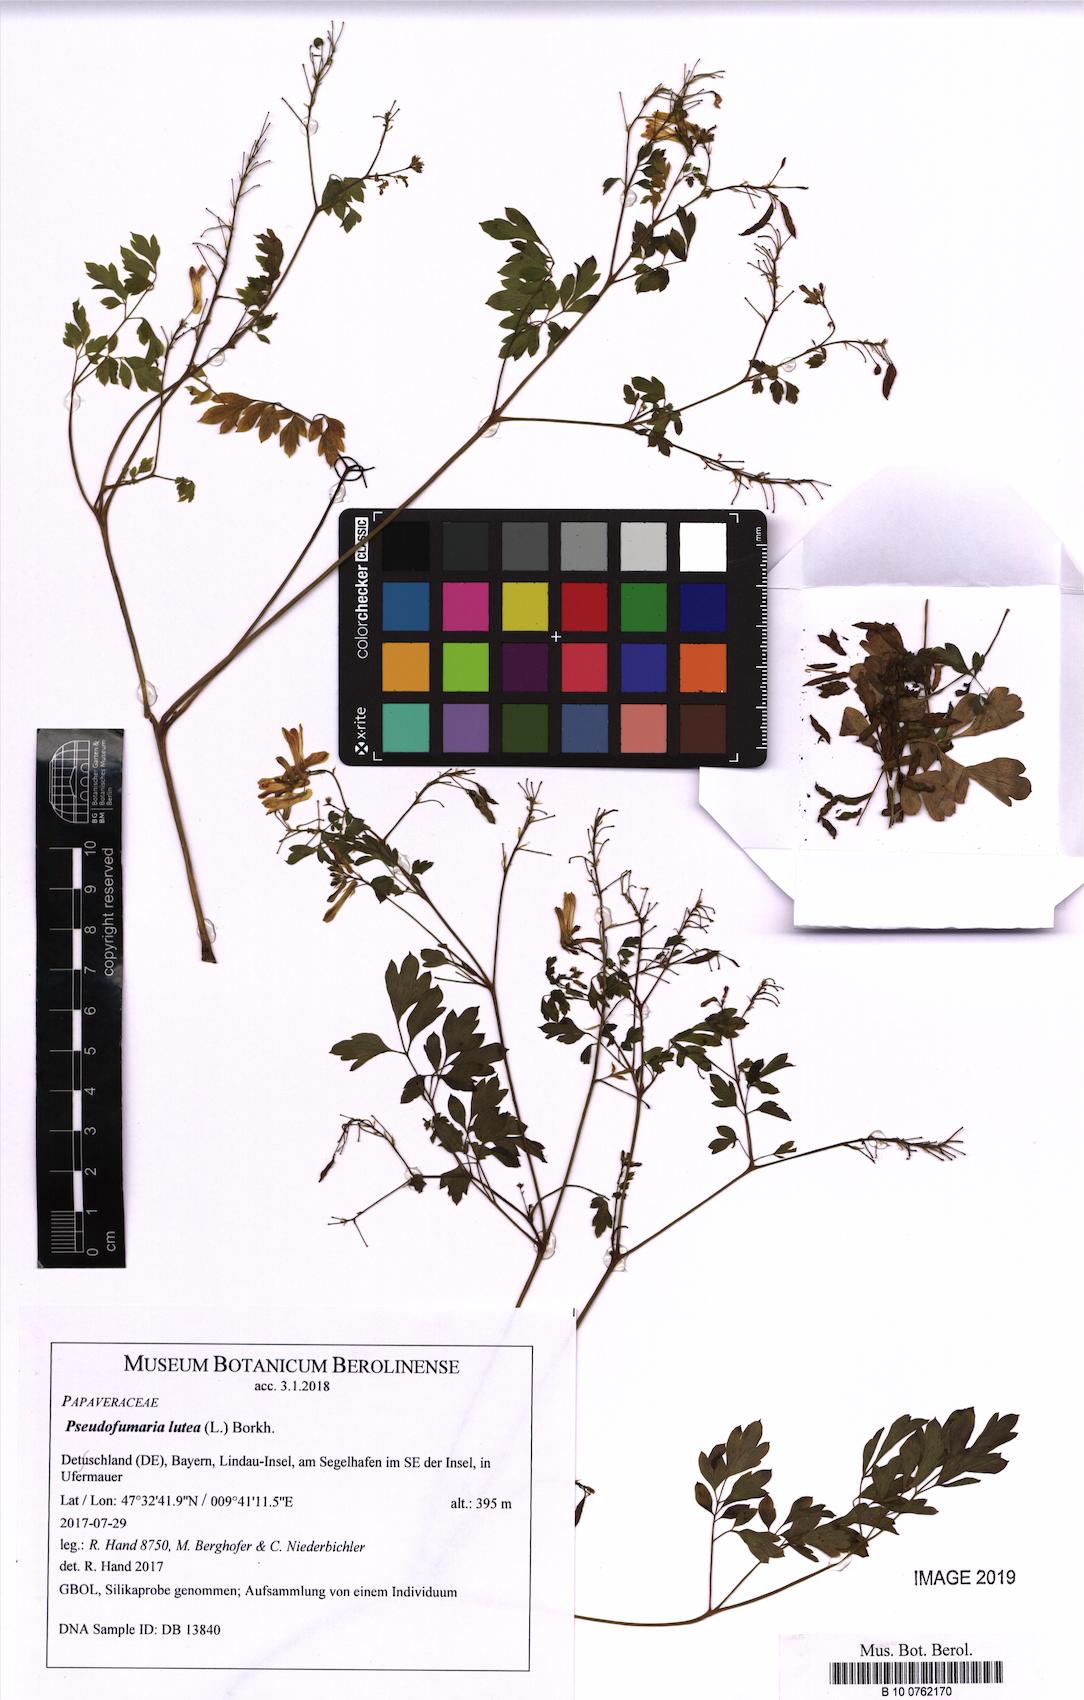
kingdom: Plantae
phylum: Tracheophyta
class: Magnoliopsida
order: Ranunculales
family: Papaveraceae
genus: Pseudofumaria
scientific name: Pseudofumaria lutea
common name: Yellow corydalis
